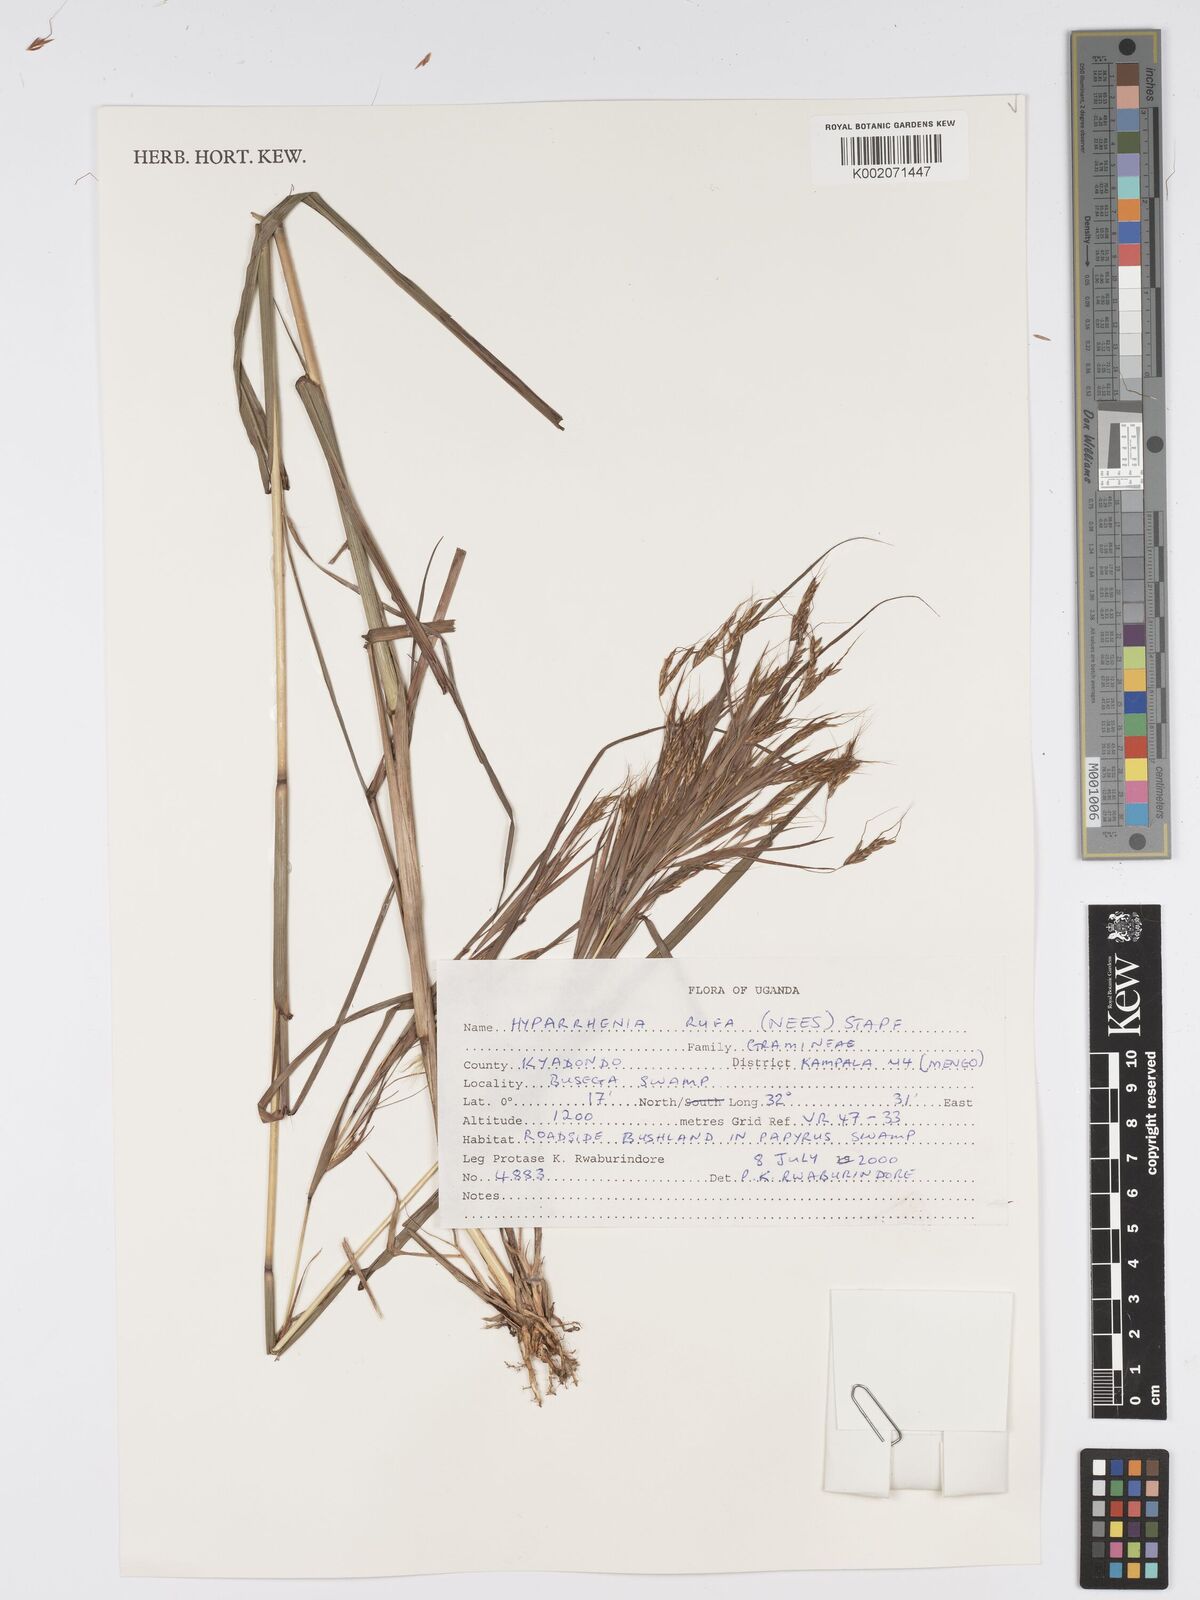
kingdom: Plantae
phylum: Tracheophyta
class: Liliopsida
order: Poales
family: Poaceae
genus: Hyparrhenia
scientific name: Hyparrhenia rufa
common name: Jaraguagrass
